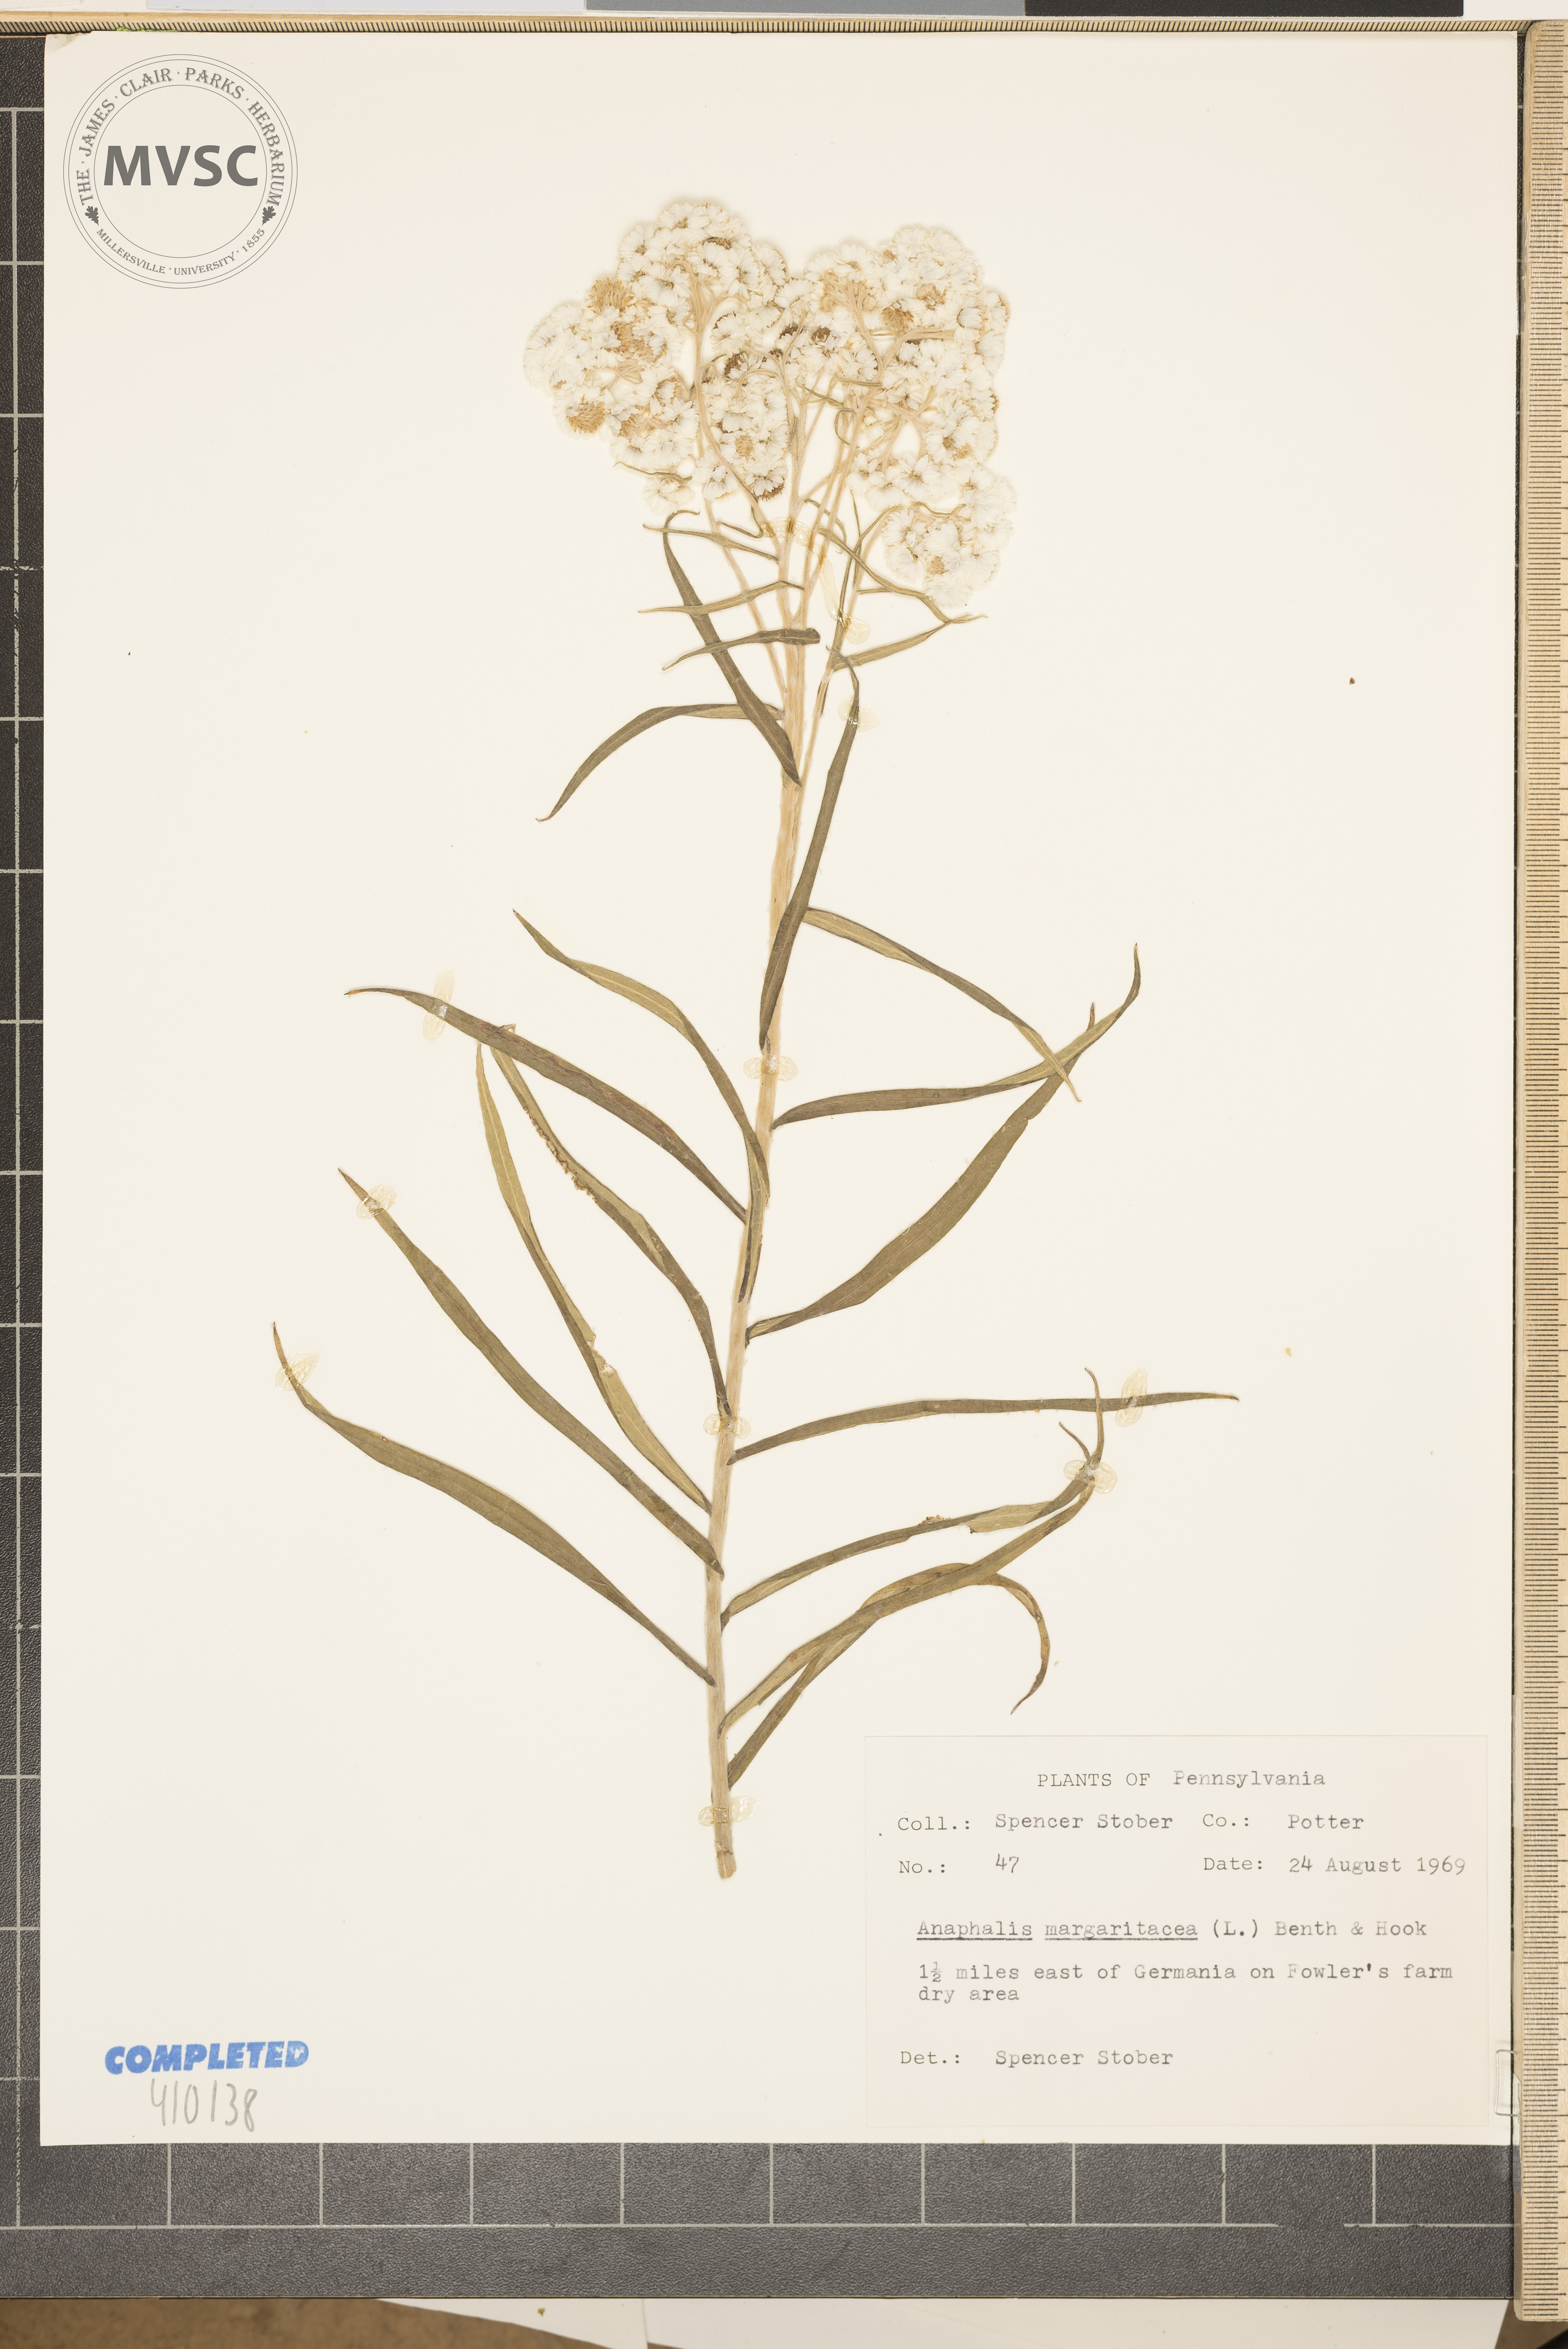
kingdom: Plantae
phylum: Tracheophyta
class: Magnoliopsida
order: Asterales
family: Asteraceae
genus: Anaphalis
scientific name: Anaphalis margaritacea
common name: Pearly everlasting
